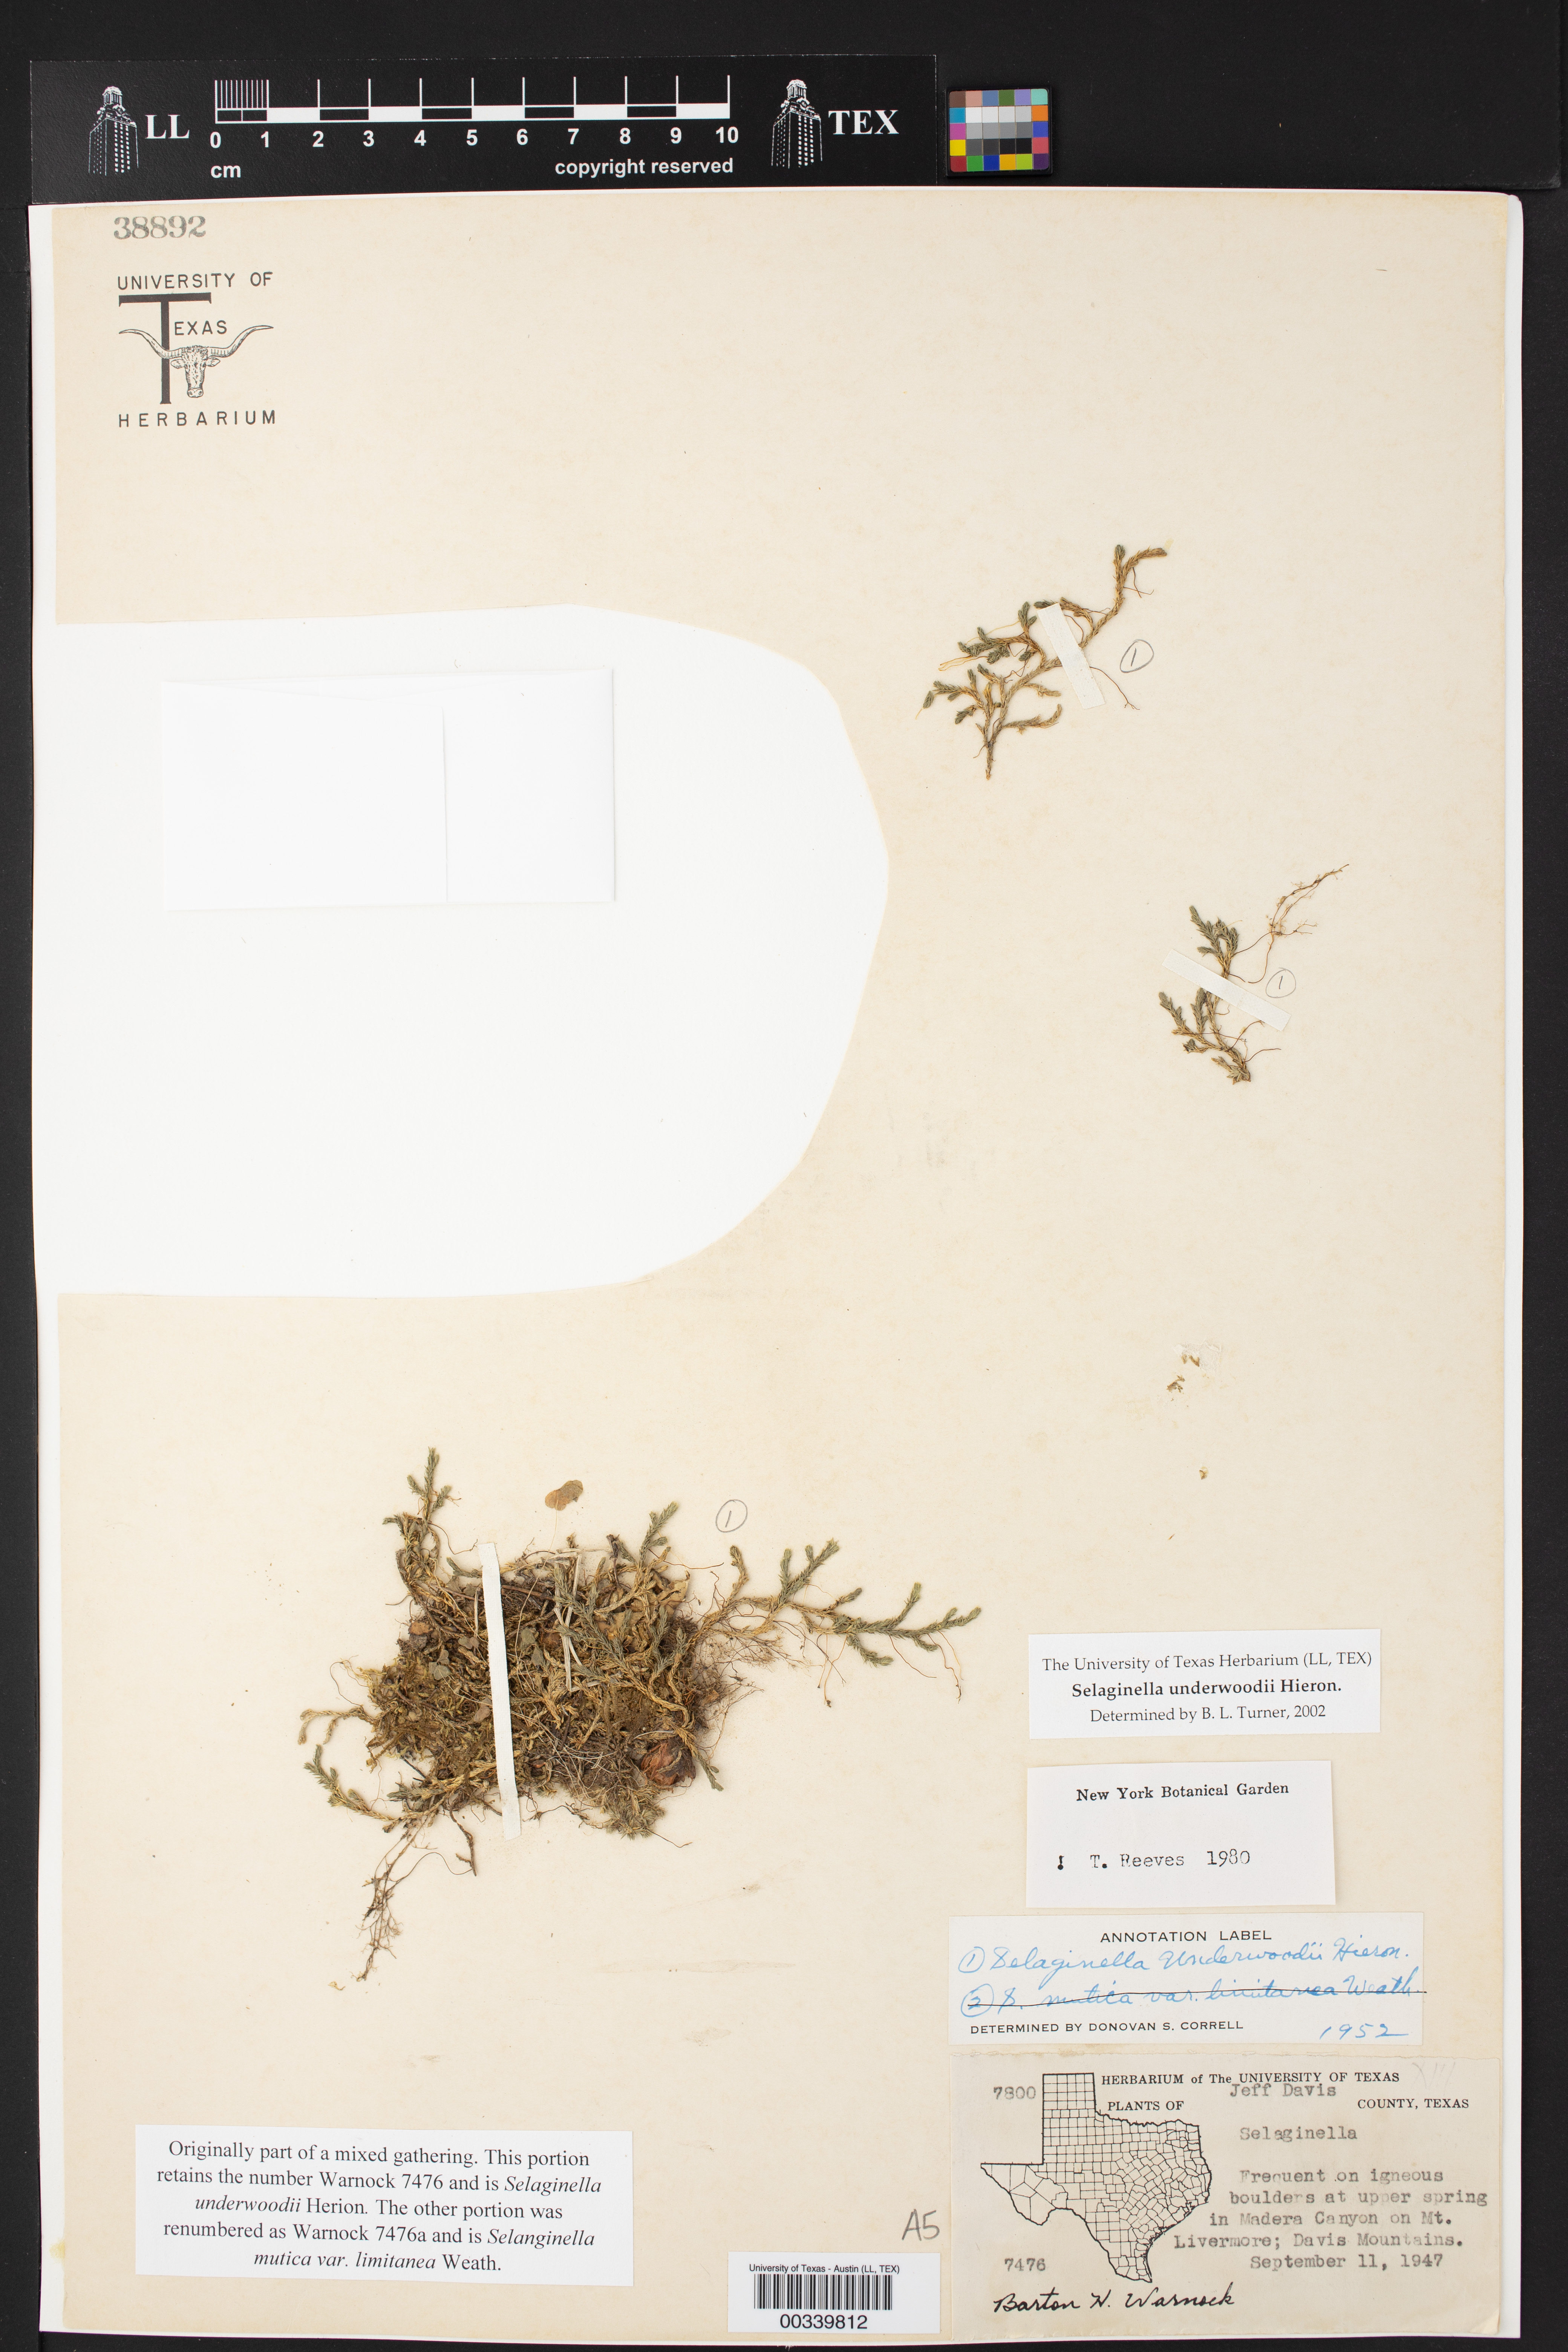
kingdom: Plantae
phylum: Tracheophyta
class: Lycopodiopsida
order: Selaginellales
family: Selaginellaceae
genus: Selaginella
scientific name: Selaginella underwoodii
